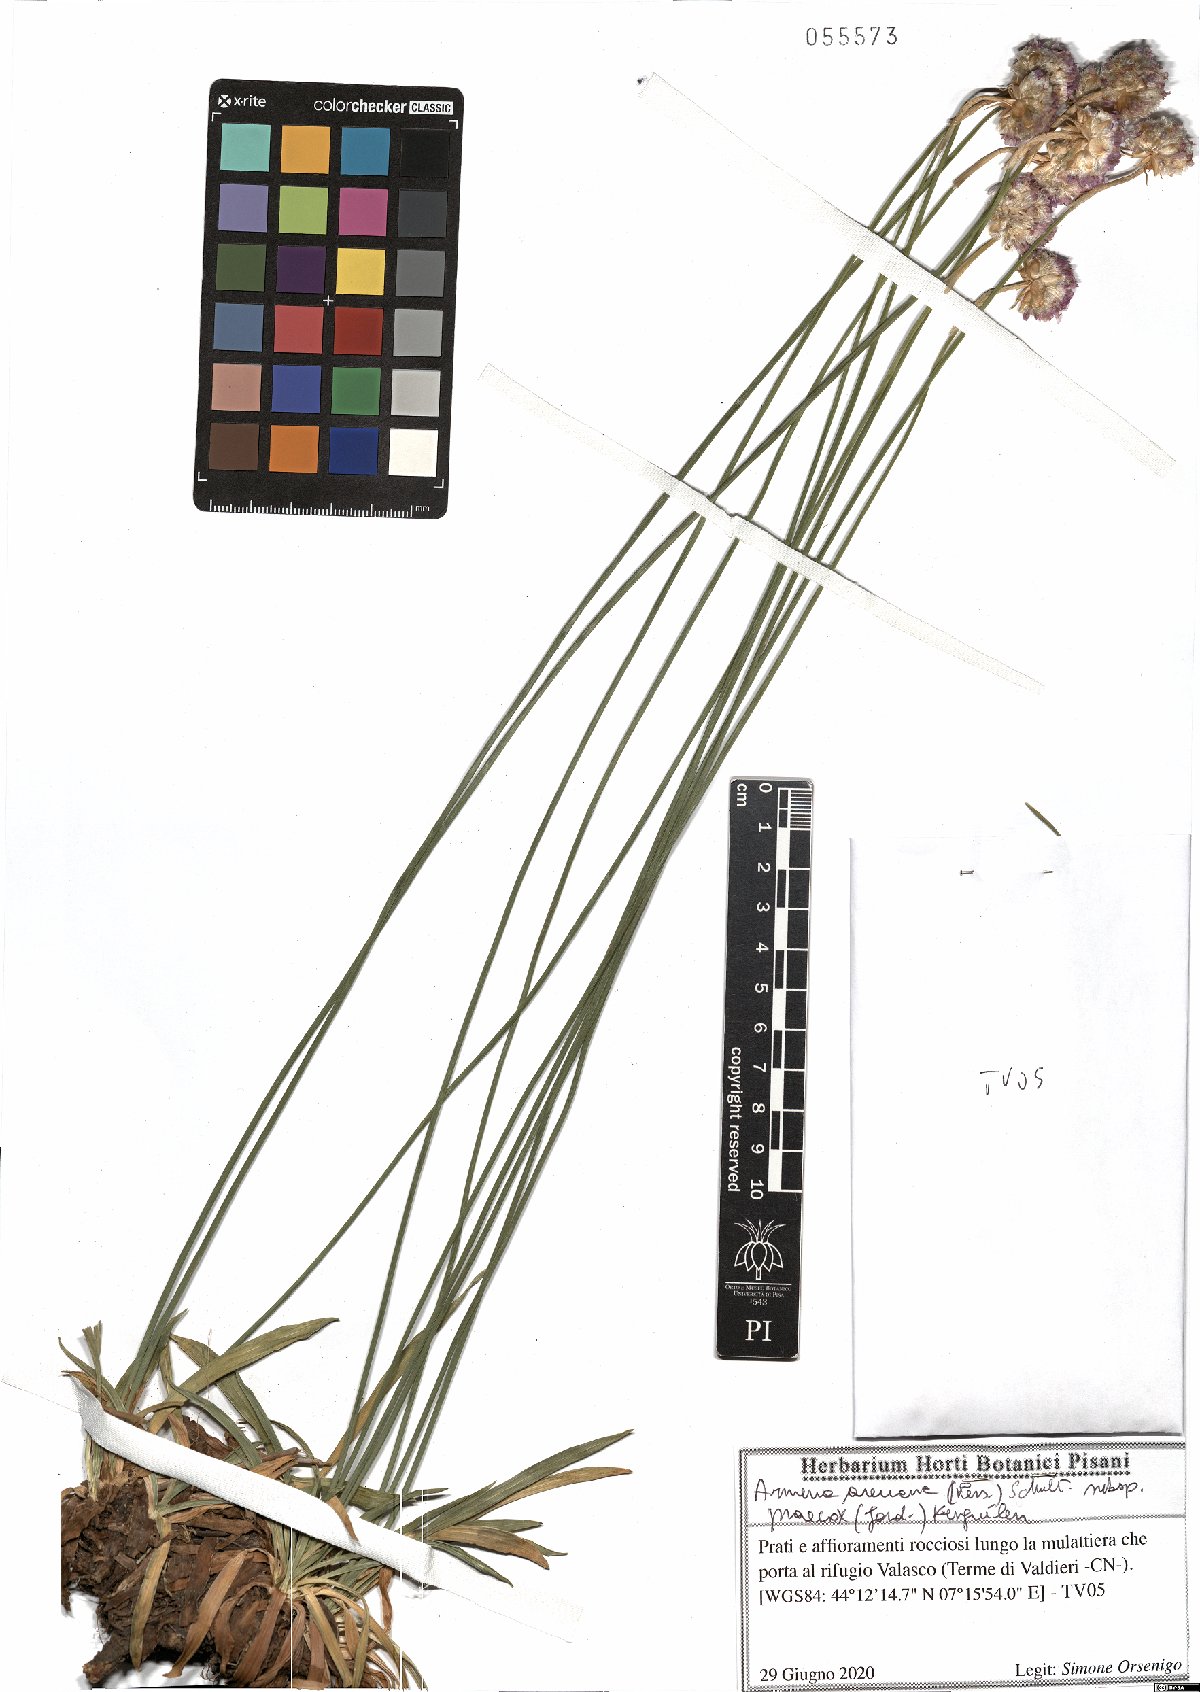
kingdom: Plantae
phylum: Tracheophyta
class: Magnoliopsida
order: Caryophyllales
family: Plumbaginaceae
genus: Armeria
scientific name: Armeria arenaria
